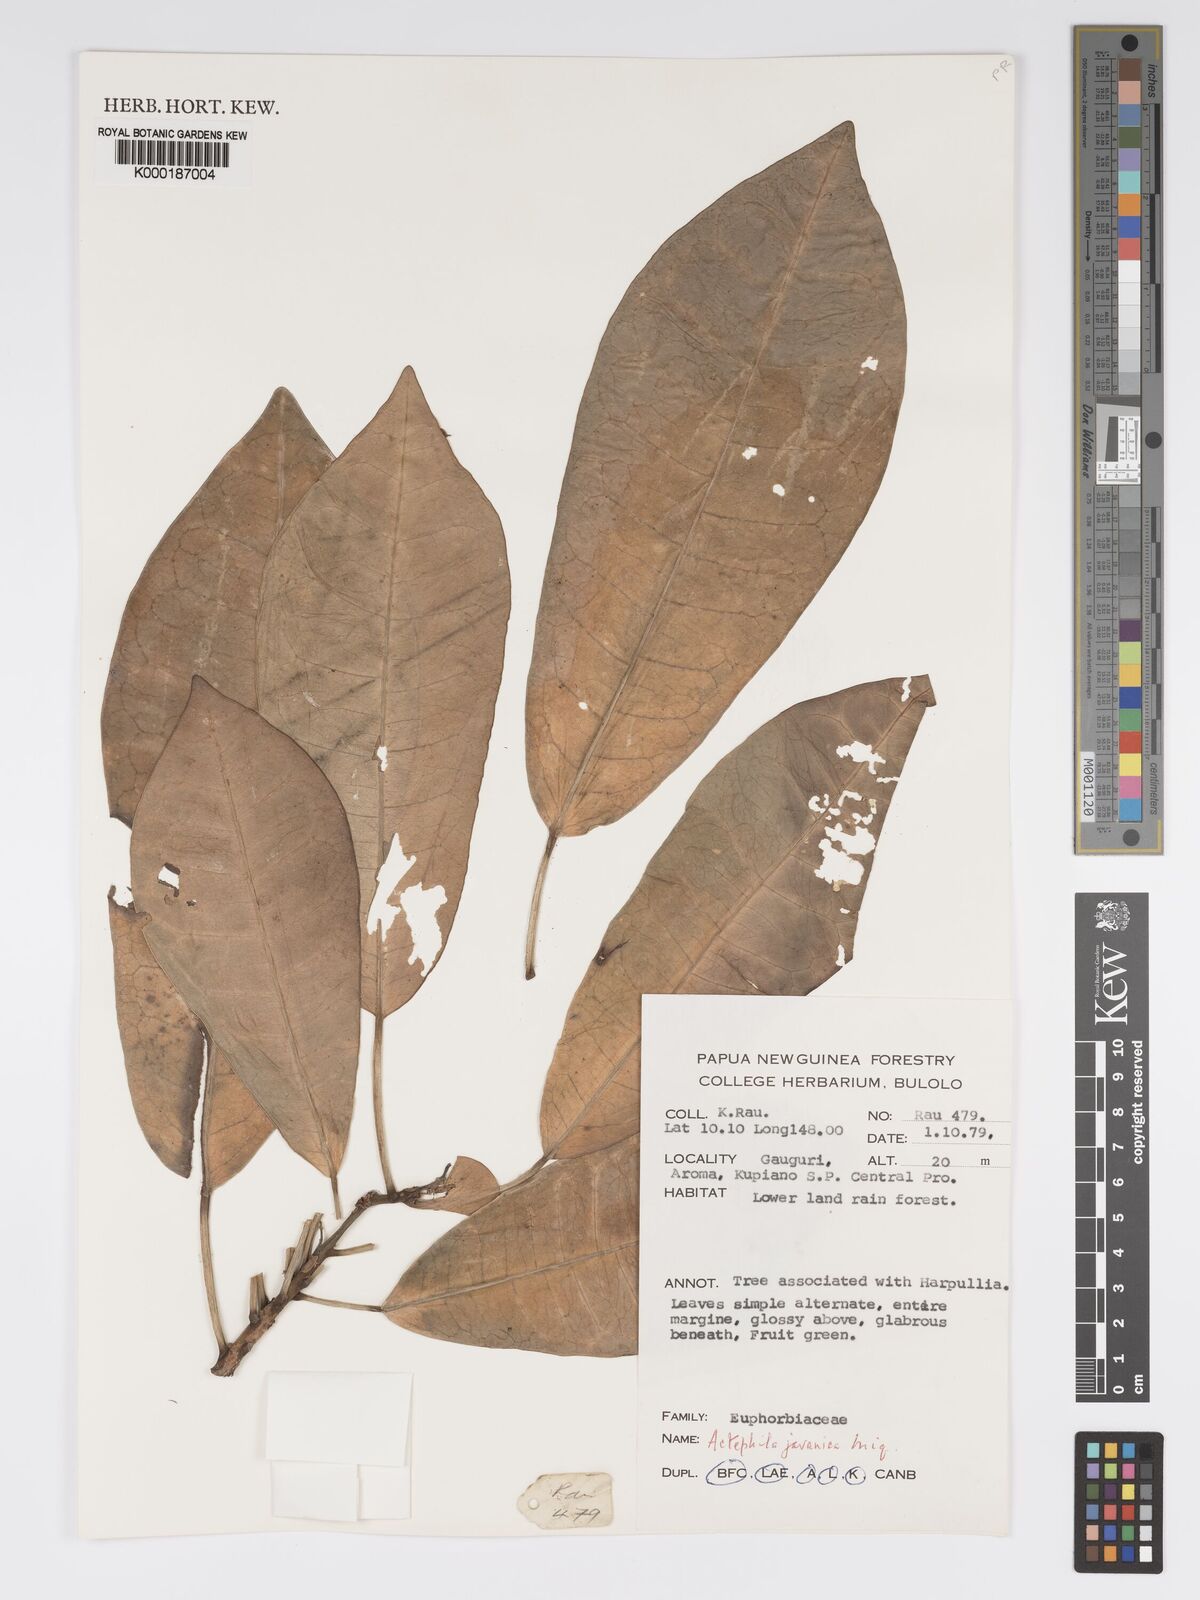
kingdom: Plantae
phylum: Tracheophyta
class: Magnoliopsida
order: Malpighiales
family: Phyllanthaceae
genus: Actephila
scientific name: Actephila
